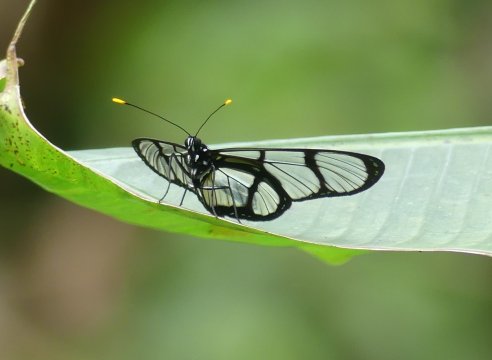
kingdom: Animalia
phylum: Arthropoda
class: Insecta
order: Lepidoptera
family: Nymphalidae
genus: Methona
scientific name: Methona confusa
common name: Confusa Tigerwing
